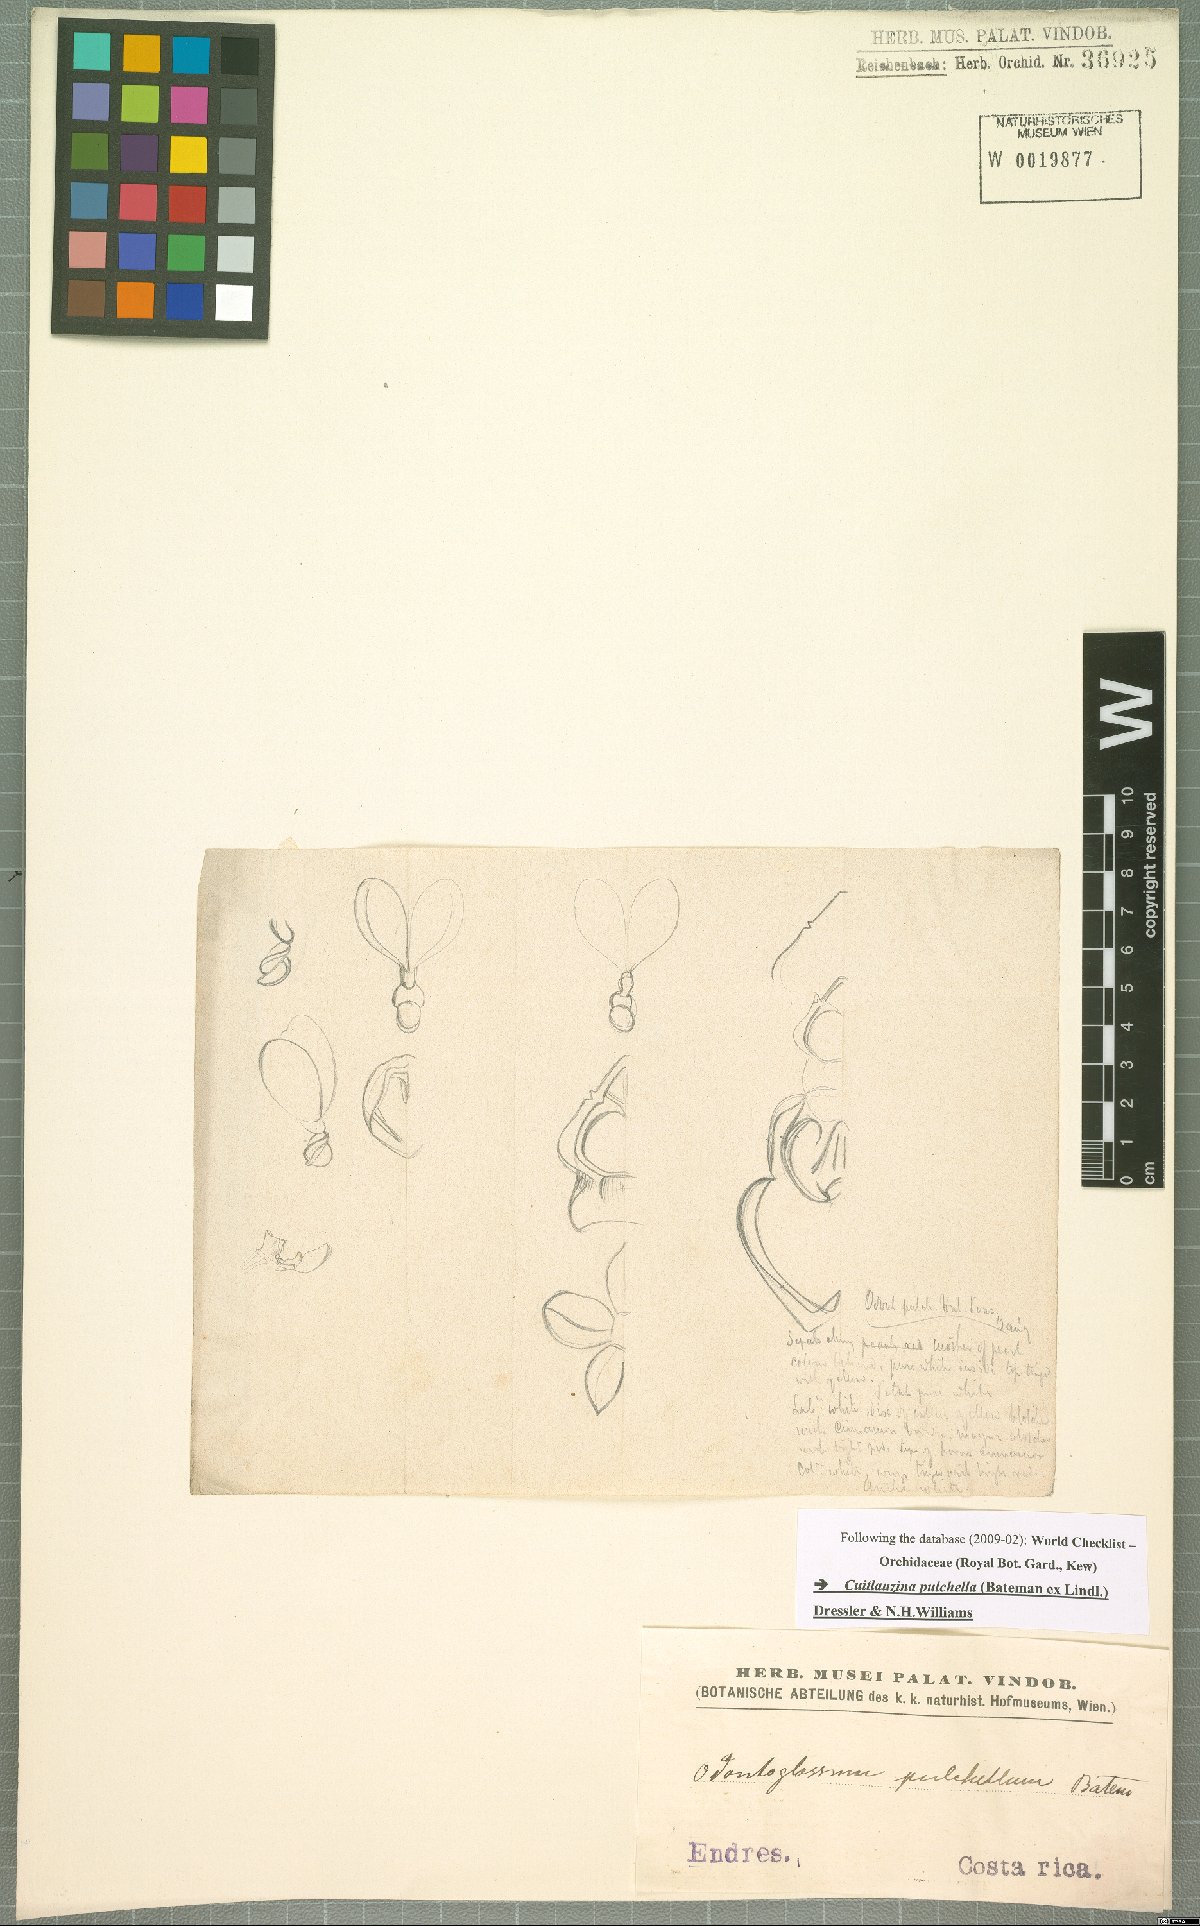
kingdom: Plantae
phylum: Tracheophyta
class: Liliopsida
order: Asparagales
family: Orchidaceae
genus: Cuitlauzina
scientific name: Cuitlauzina pulchella
